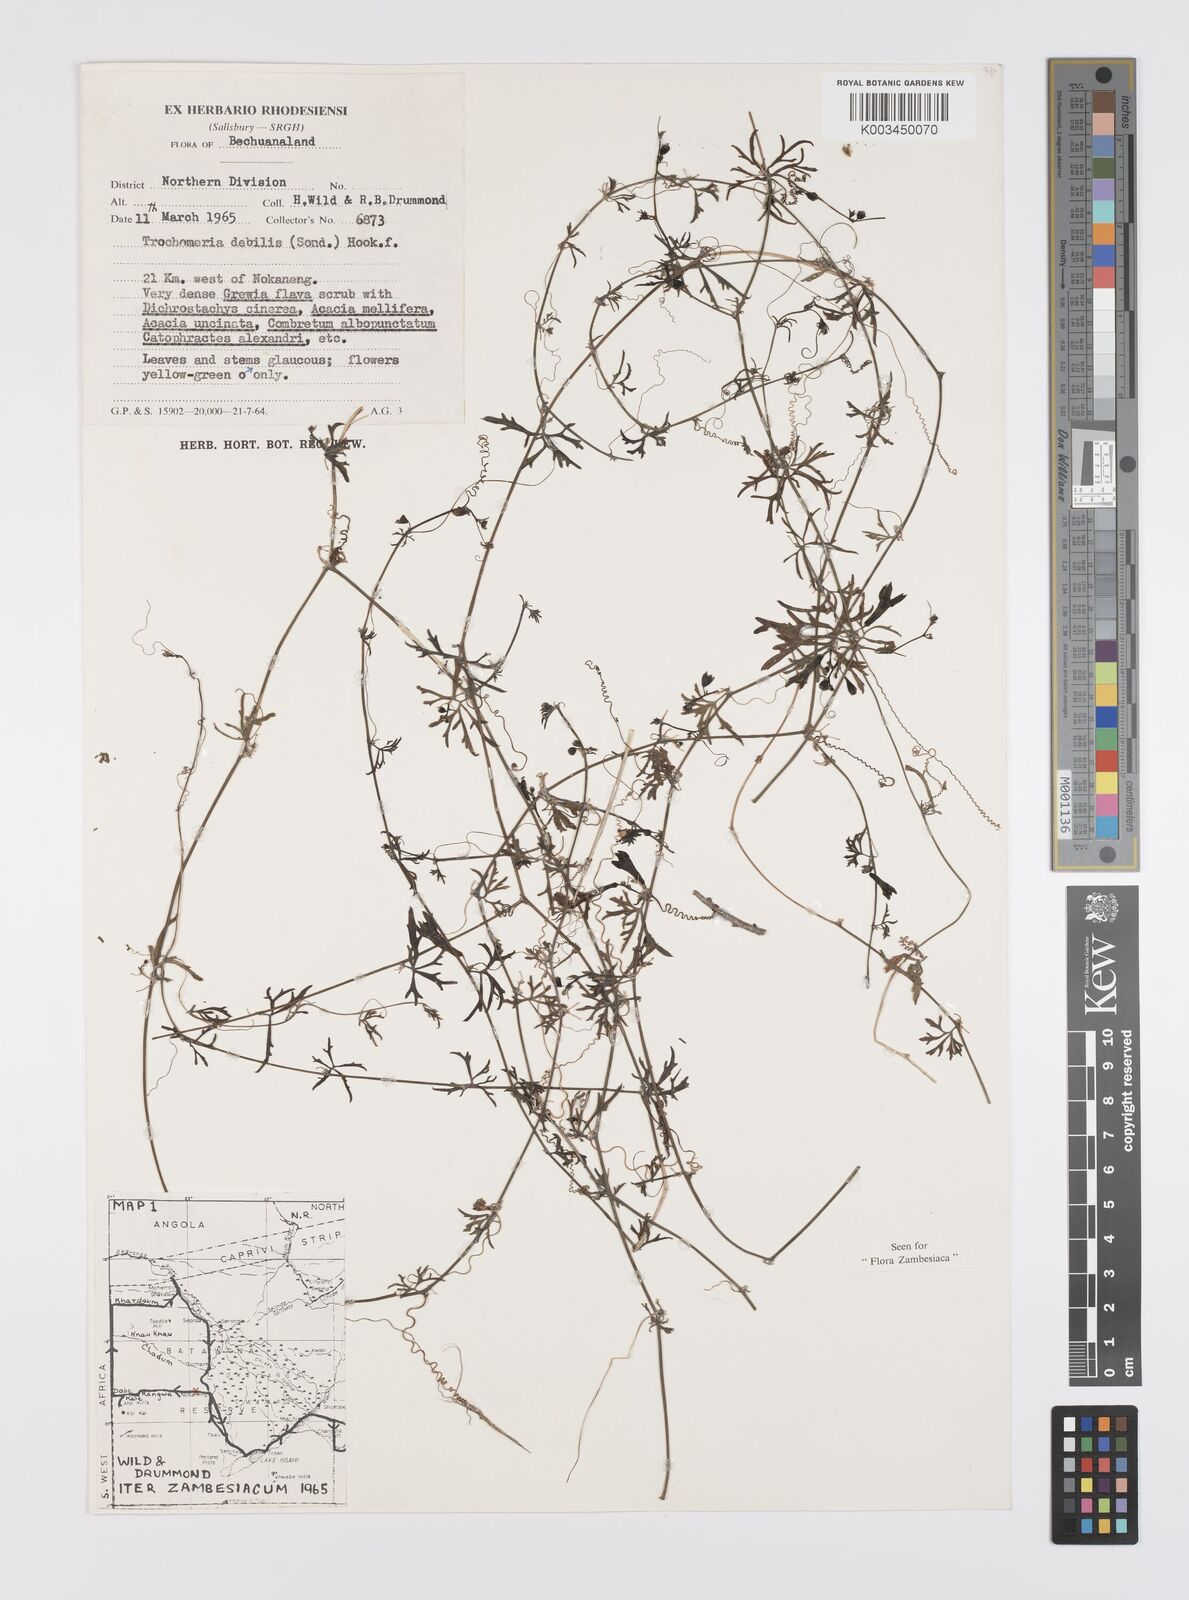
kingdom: Plantae
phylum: Tracheophyta
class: Magnoliopsida
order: Cucurbitales
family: Cucurbitaceae
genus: Trochomeria
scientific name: Trochomeria debilis
